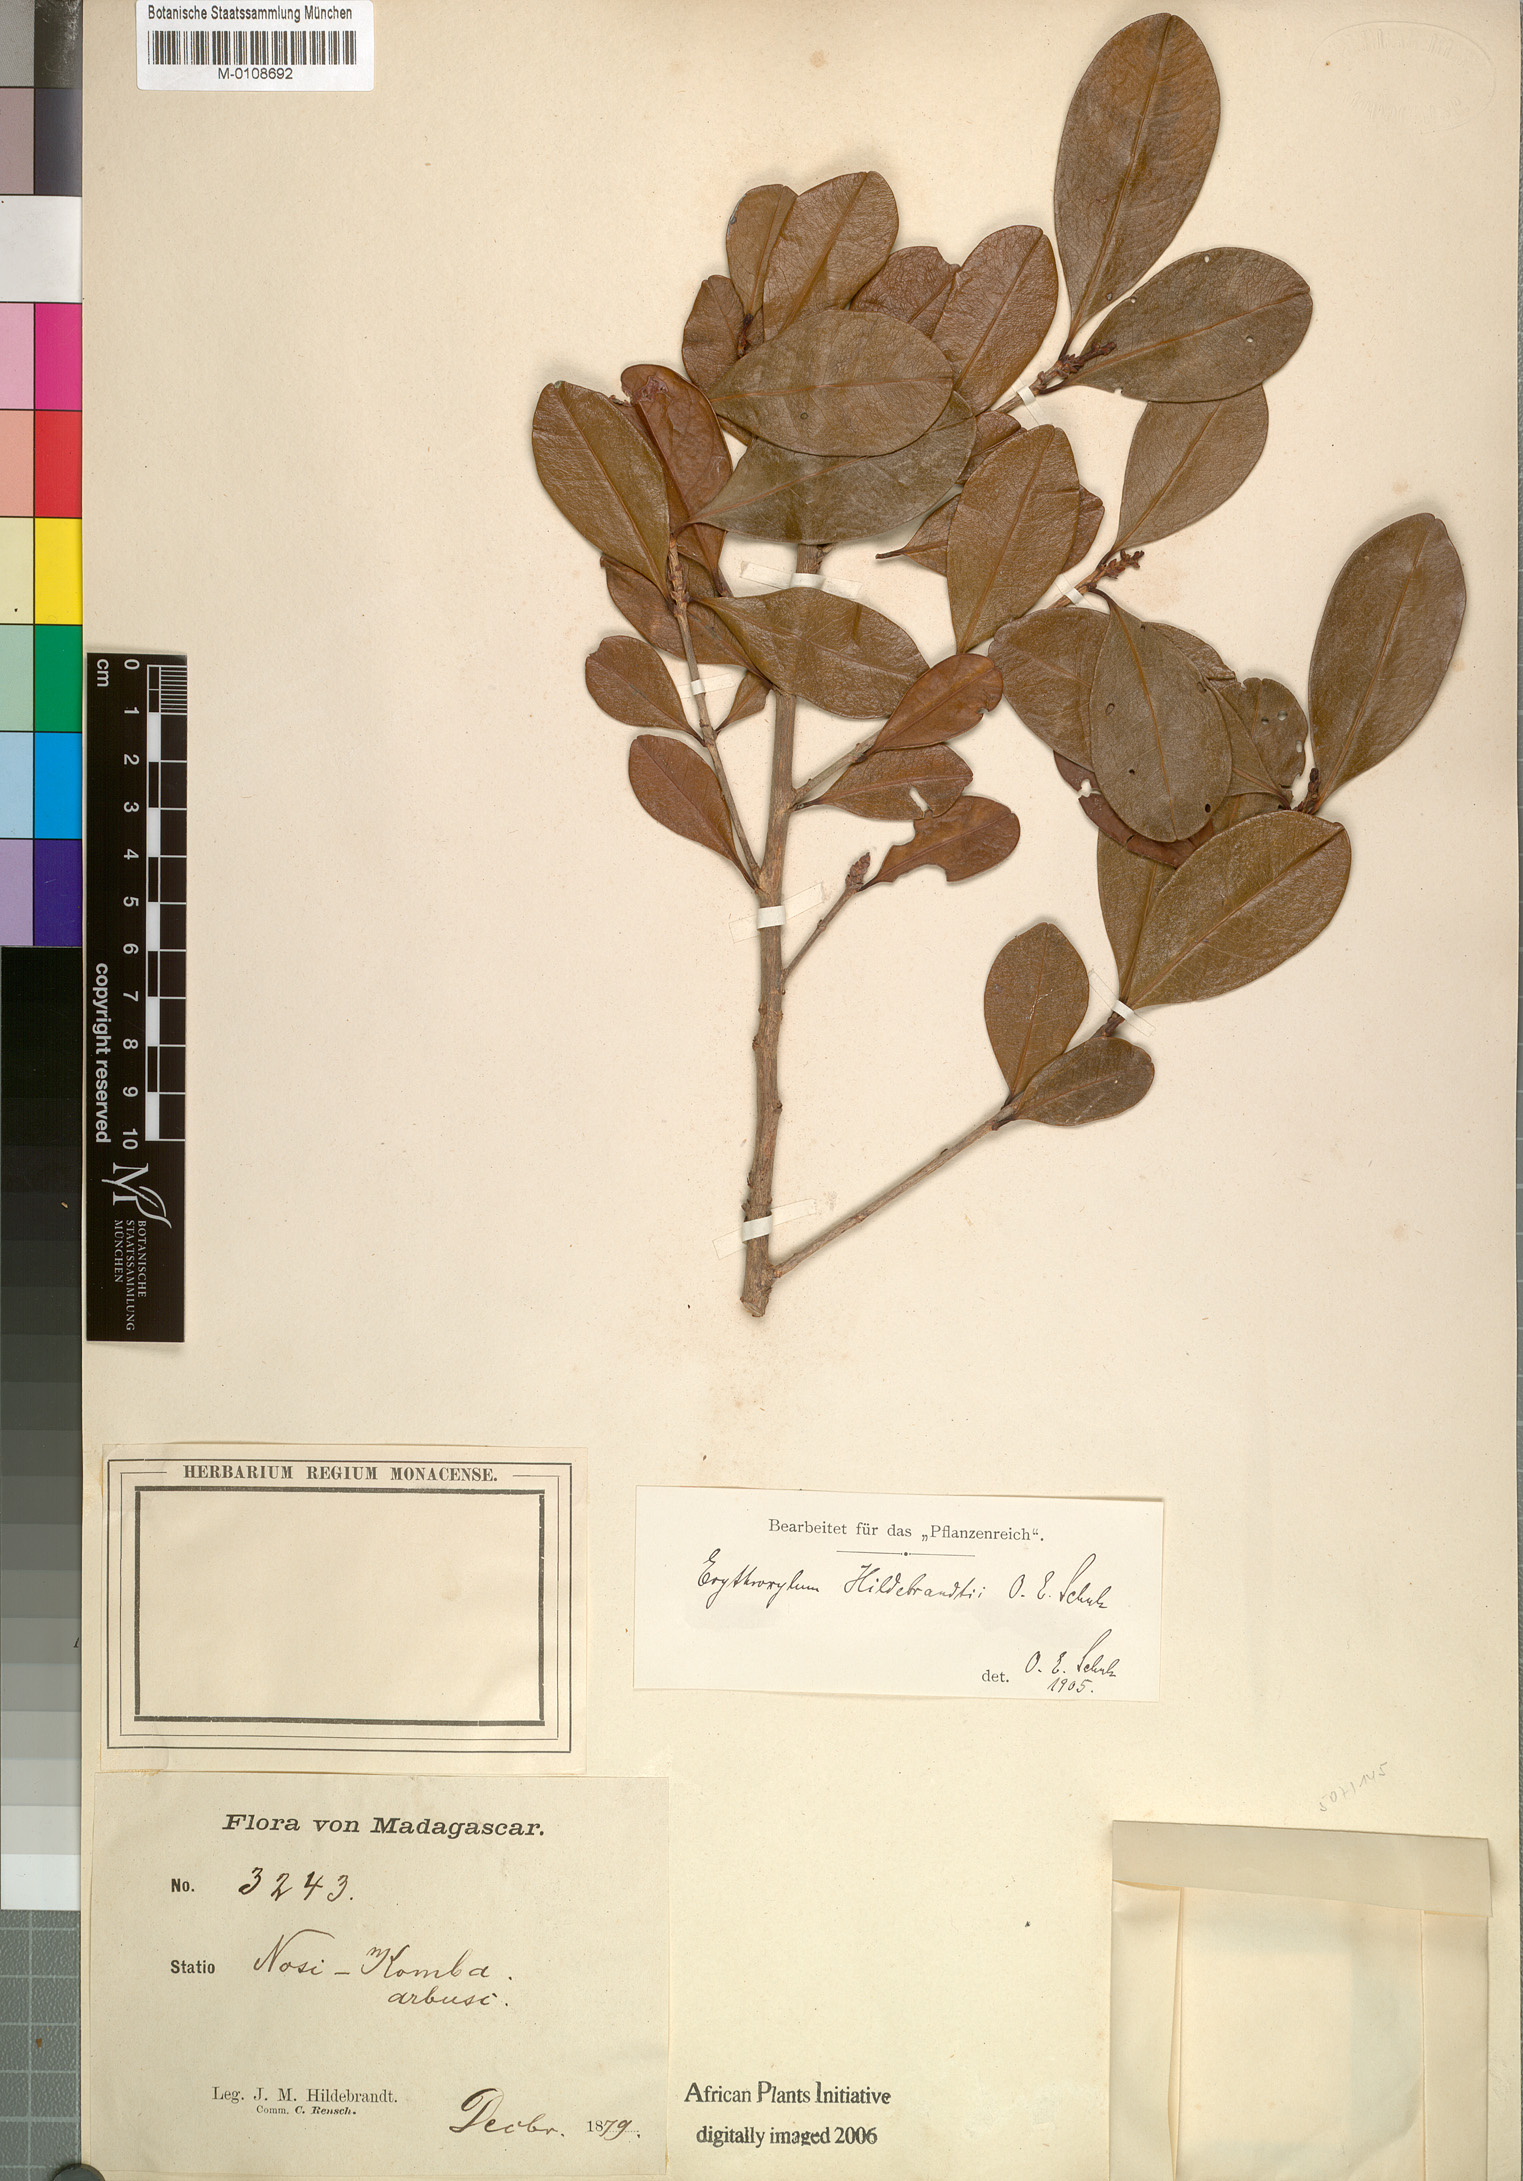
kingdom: Plantae
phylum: Tracheophyta
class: Magnoliopsida
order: Malpighiales
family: Erythroxylaceae
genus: Erythroxylum
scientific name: Erythroxylum pyrifolium
